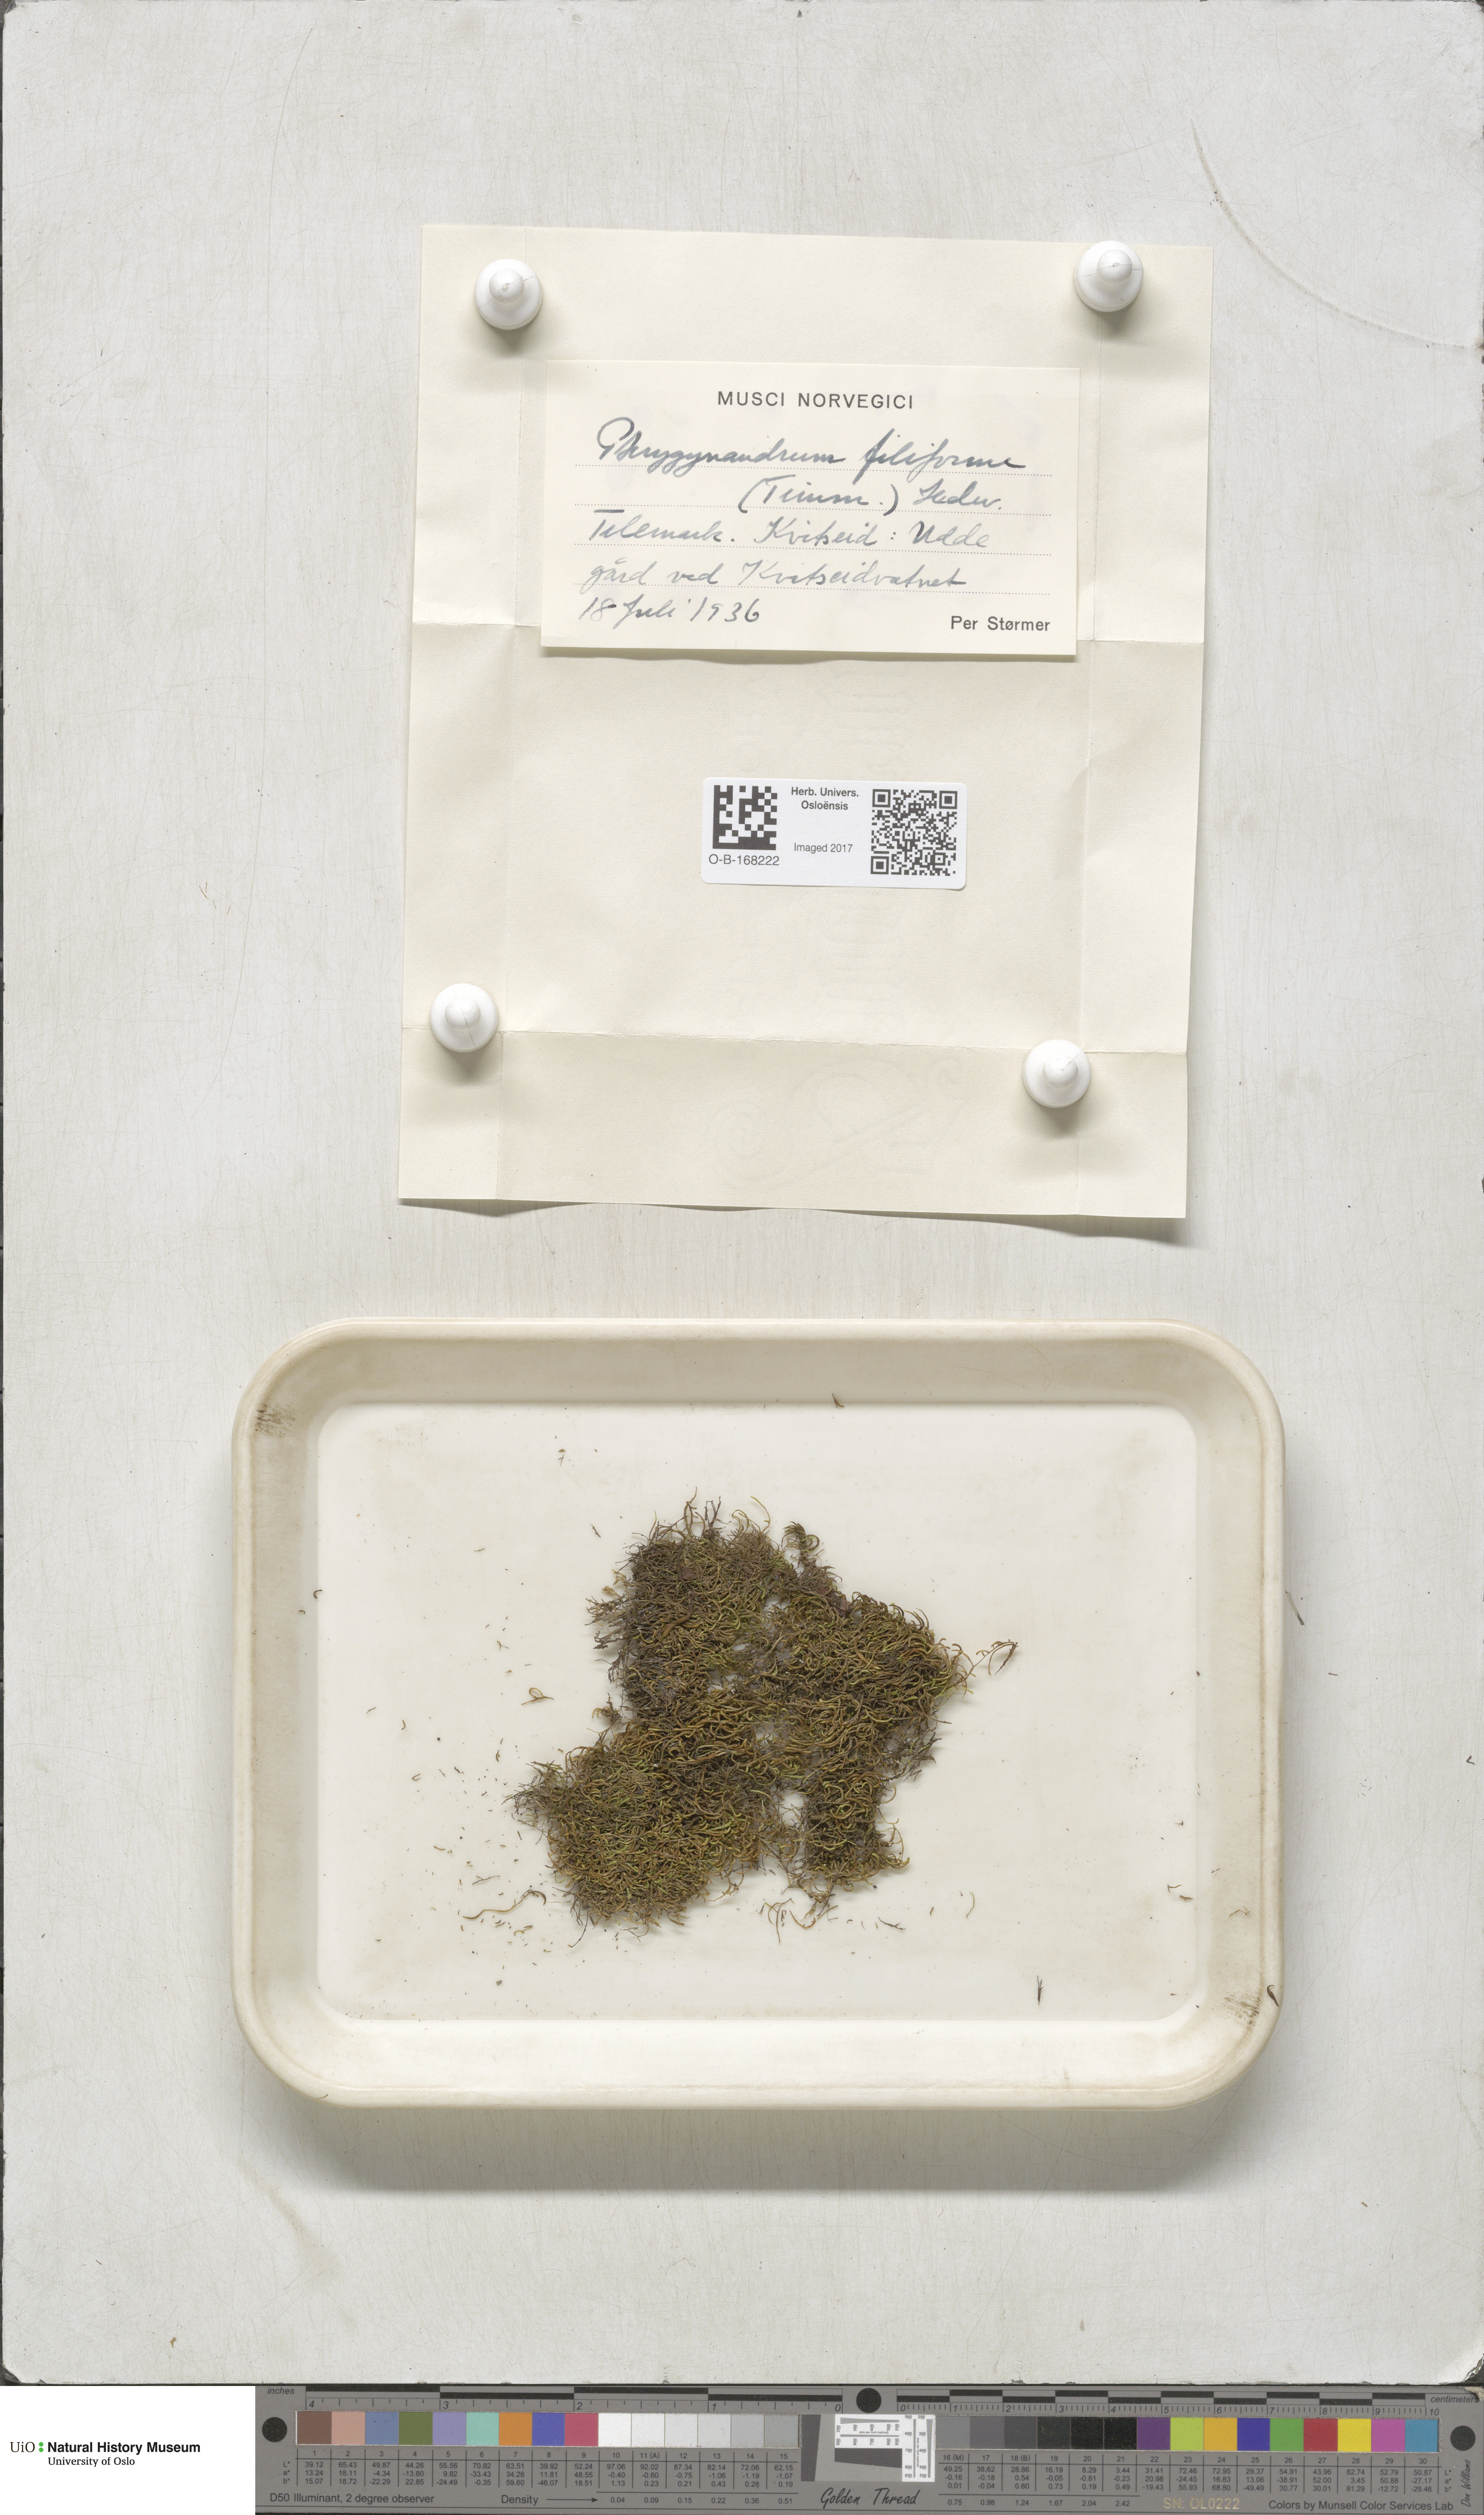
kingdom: Plantae
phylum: Bryophyta
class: Bryopsida
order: Hypnales
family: Pterigynandraceae
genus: Pterigynandrum
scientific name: Pterigynandrum filiforme
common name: Capillary wing moss
